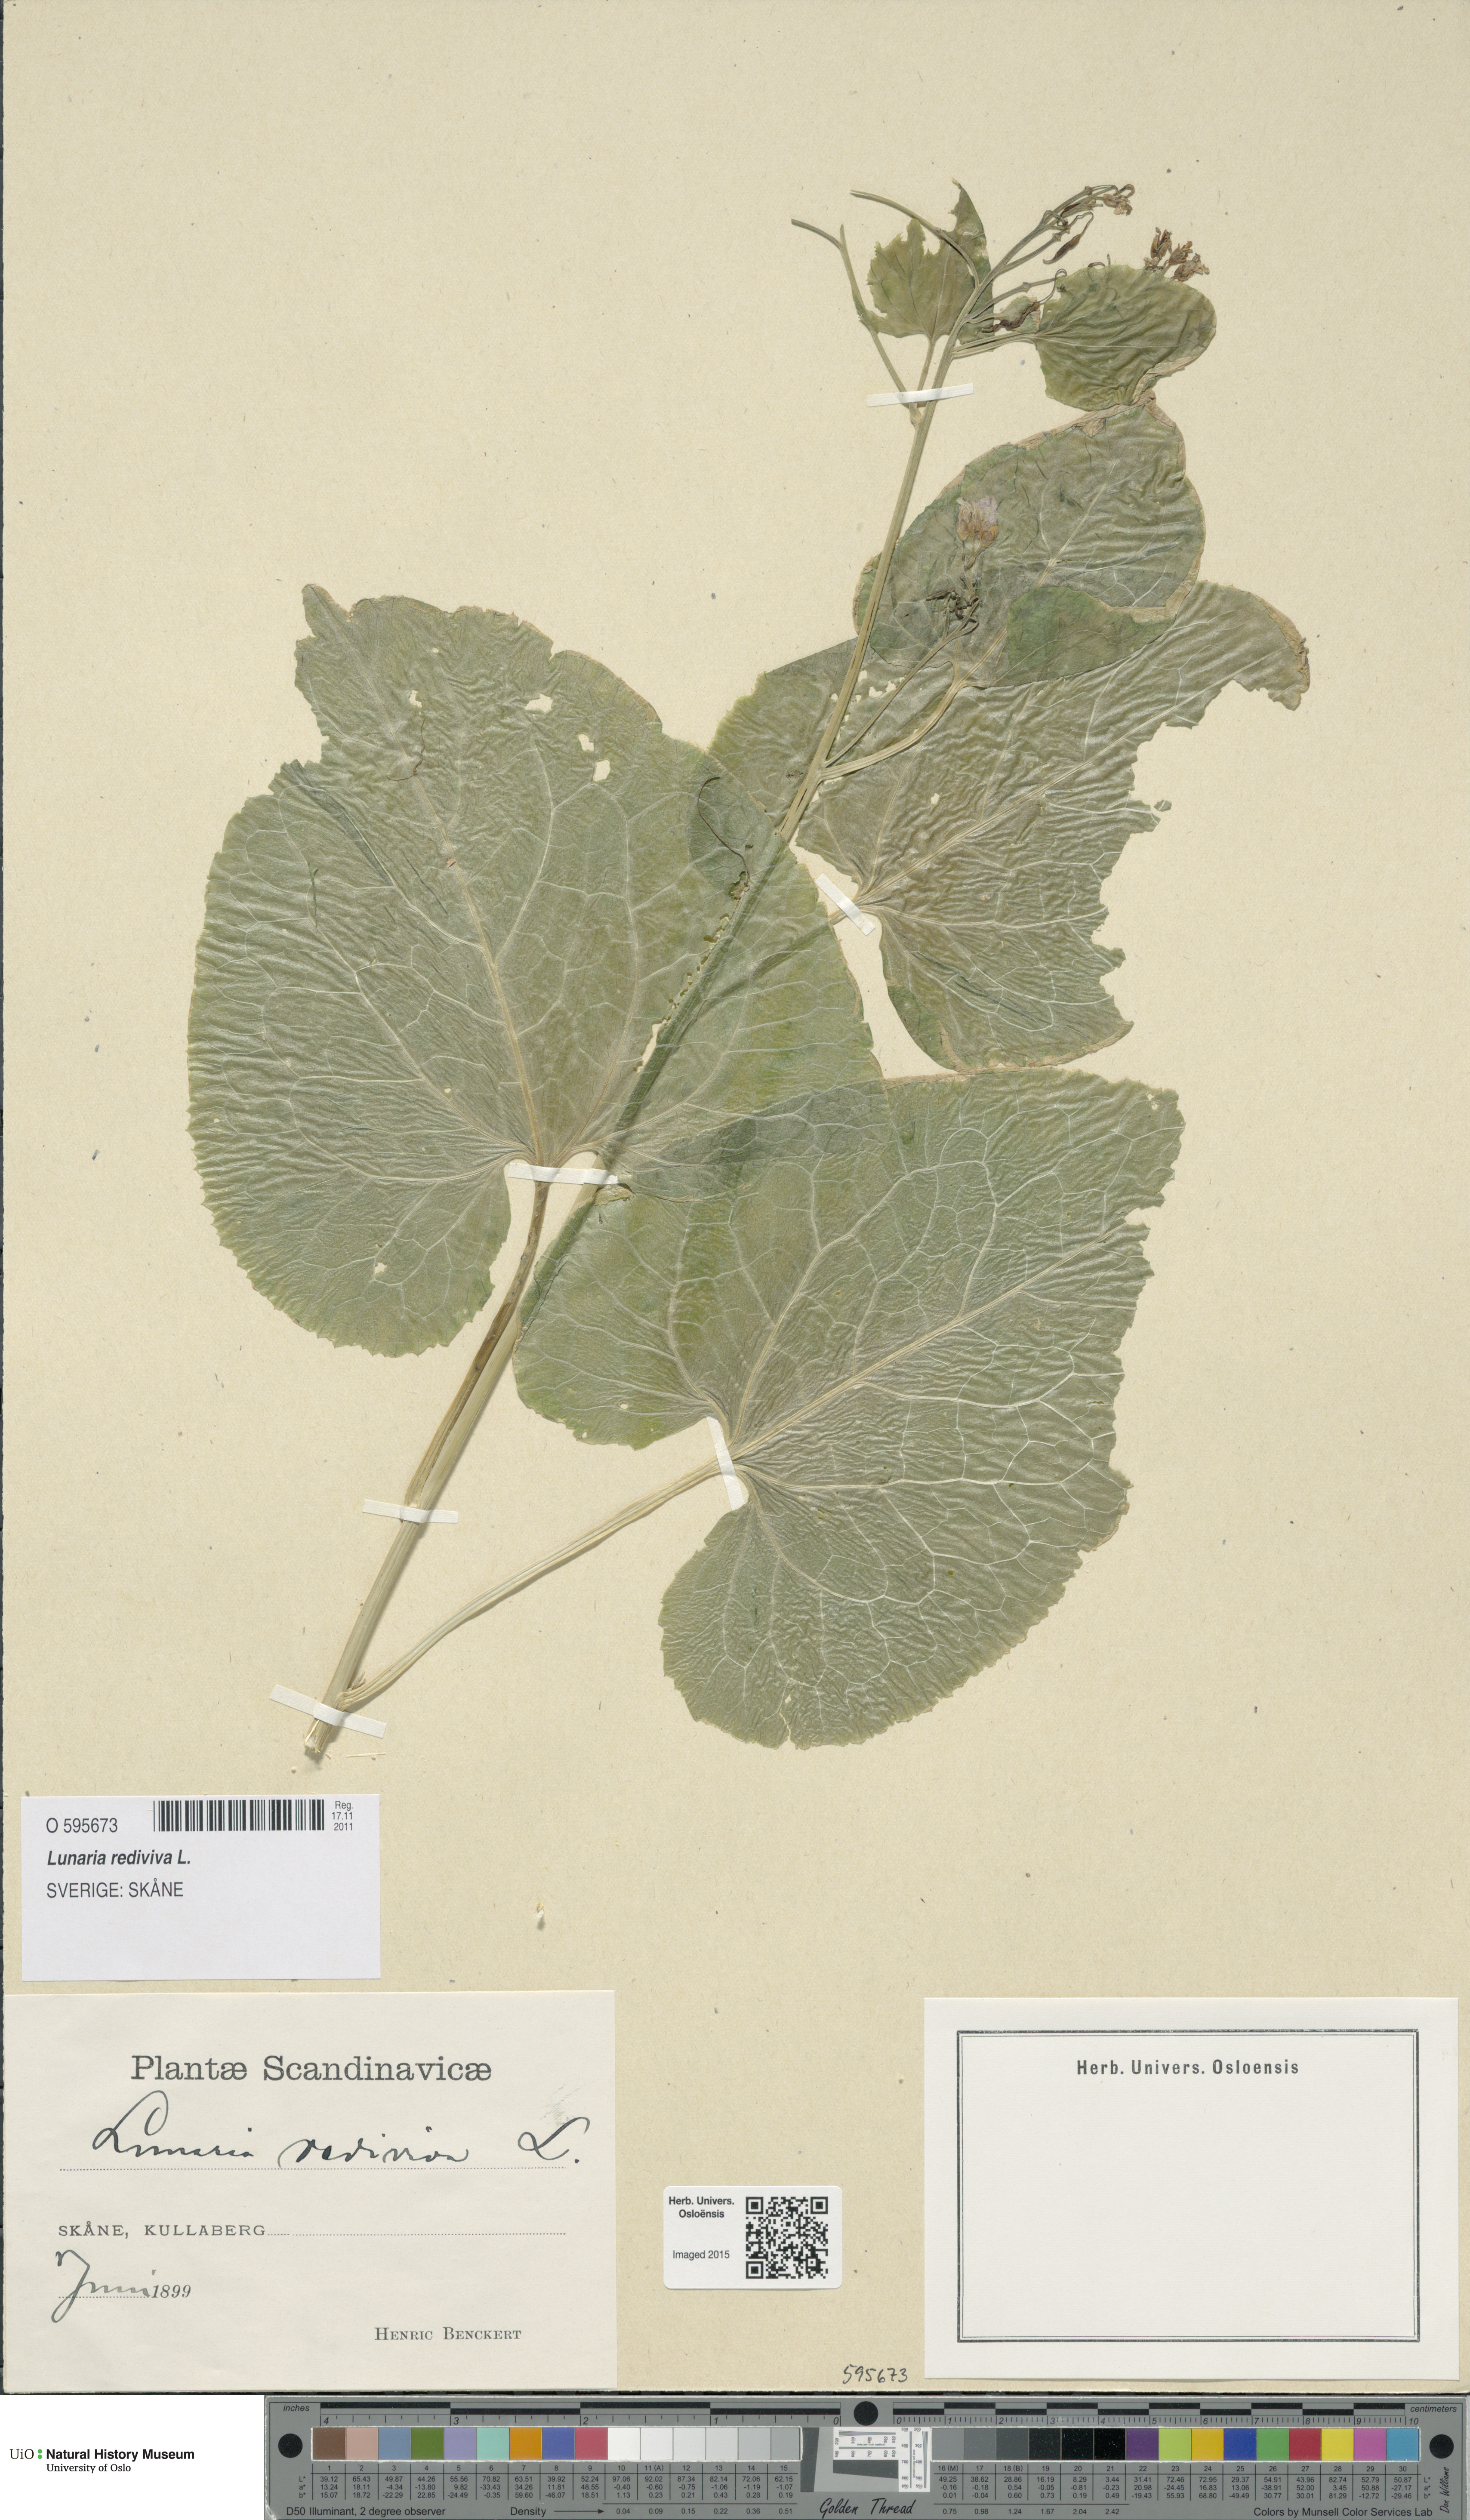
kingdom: Plantae
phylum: Tracheophyta
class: Magnoliopsida
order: Brassicales
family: Brassicaceae
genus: Lunaria
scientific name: Lunaria rediviva
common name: Perennial honesty
